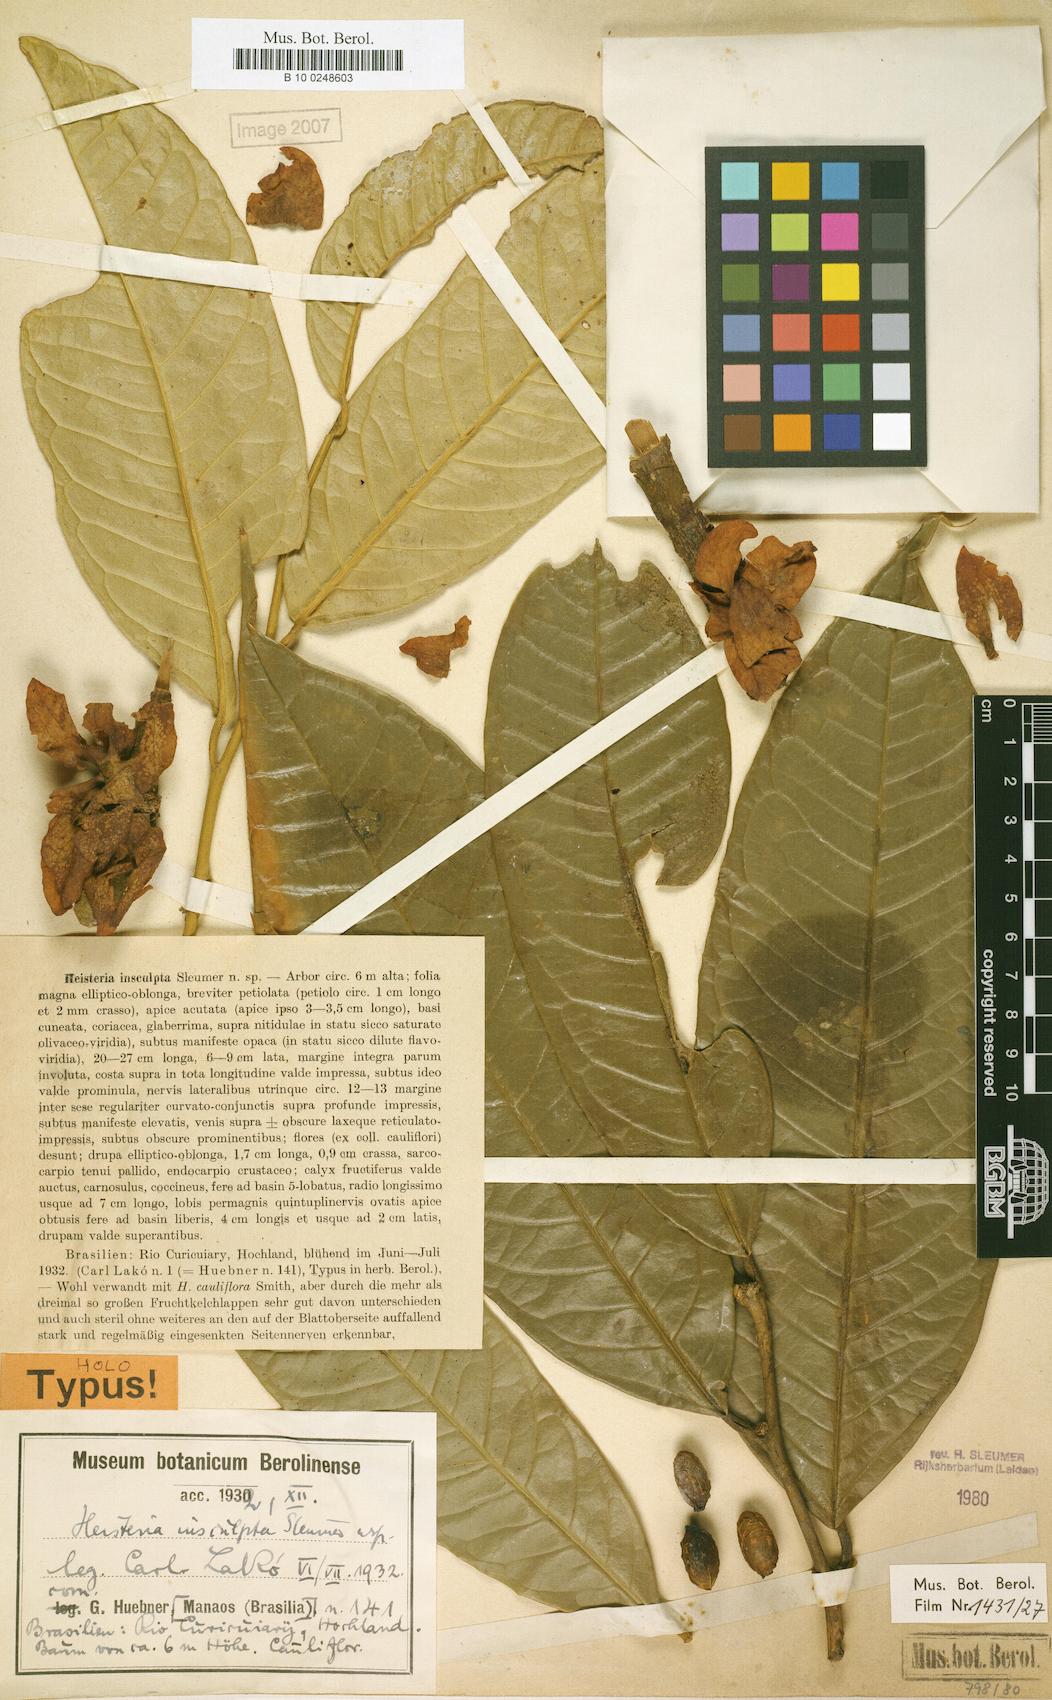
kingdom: Plantae
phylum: Tracheophyta
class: Magnoliopsida
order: Santalales
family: Erythropalaceae
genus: Heisteria
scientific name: Heisteria insculpta
